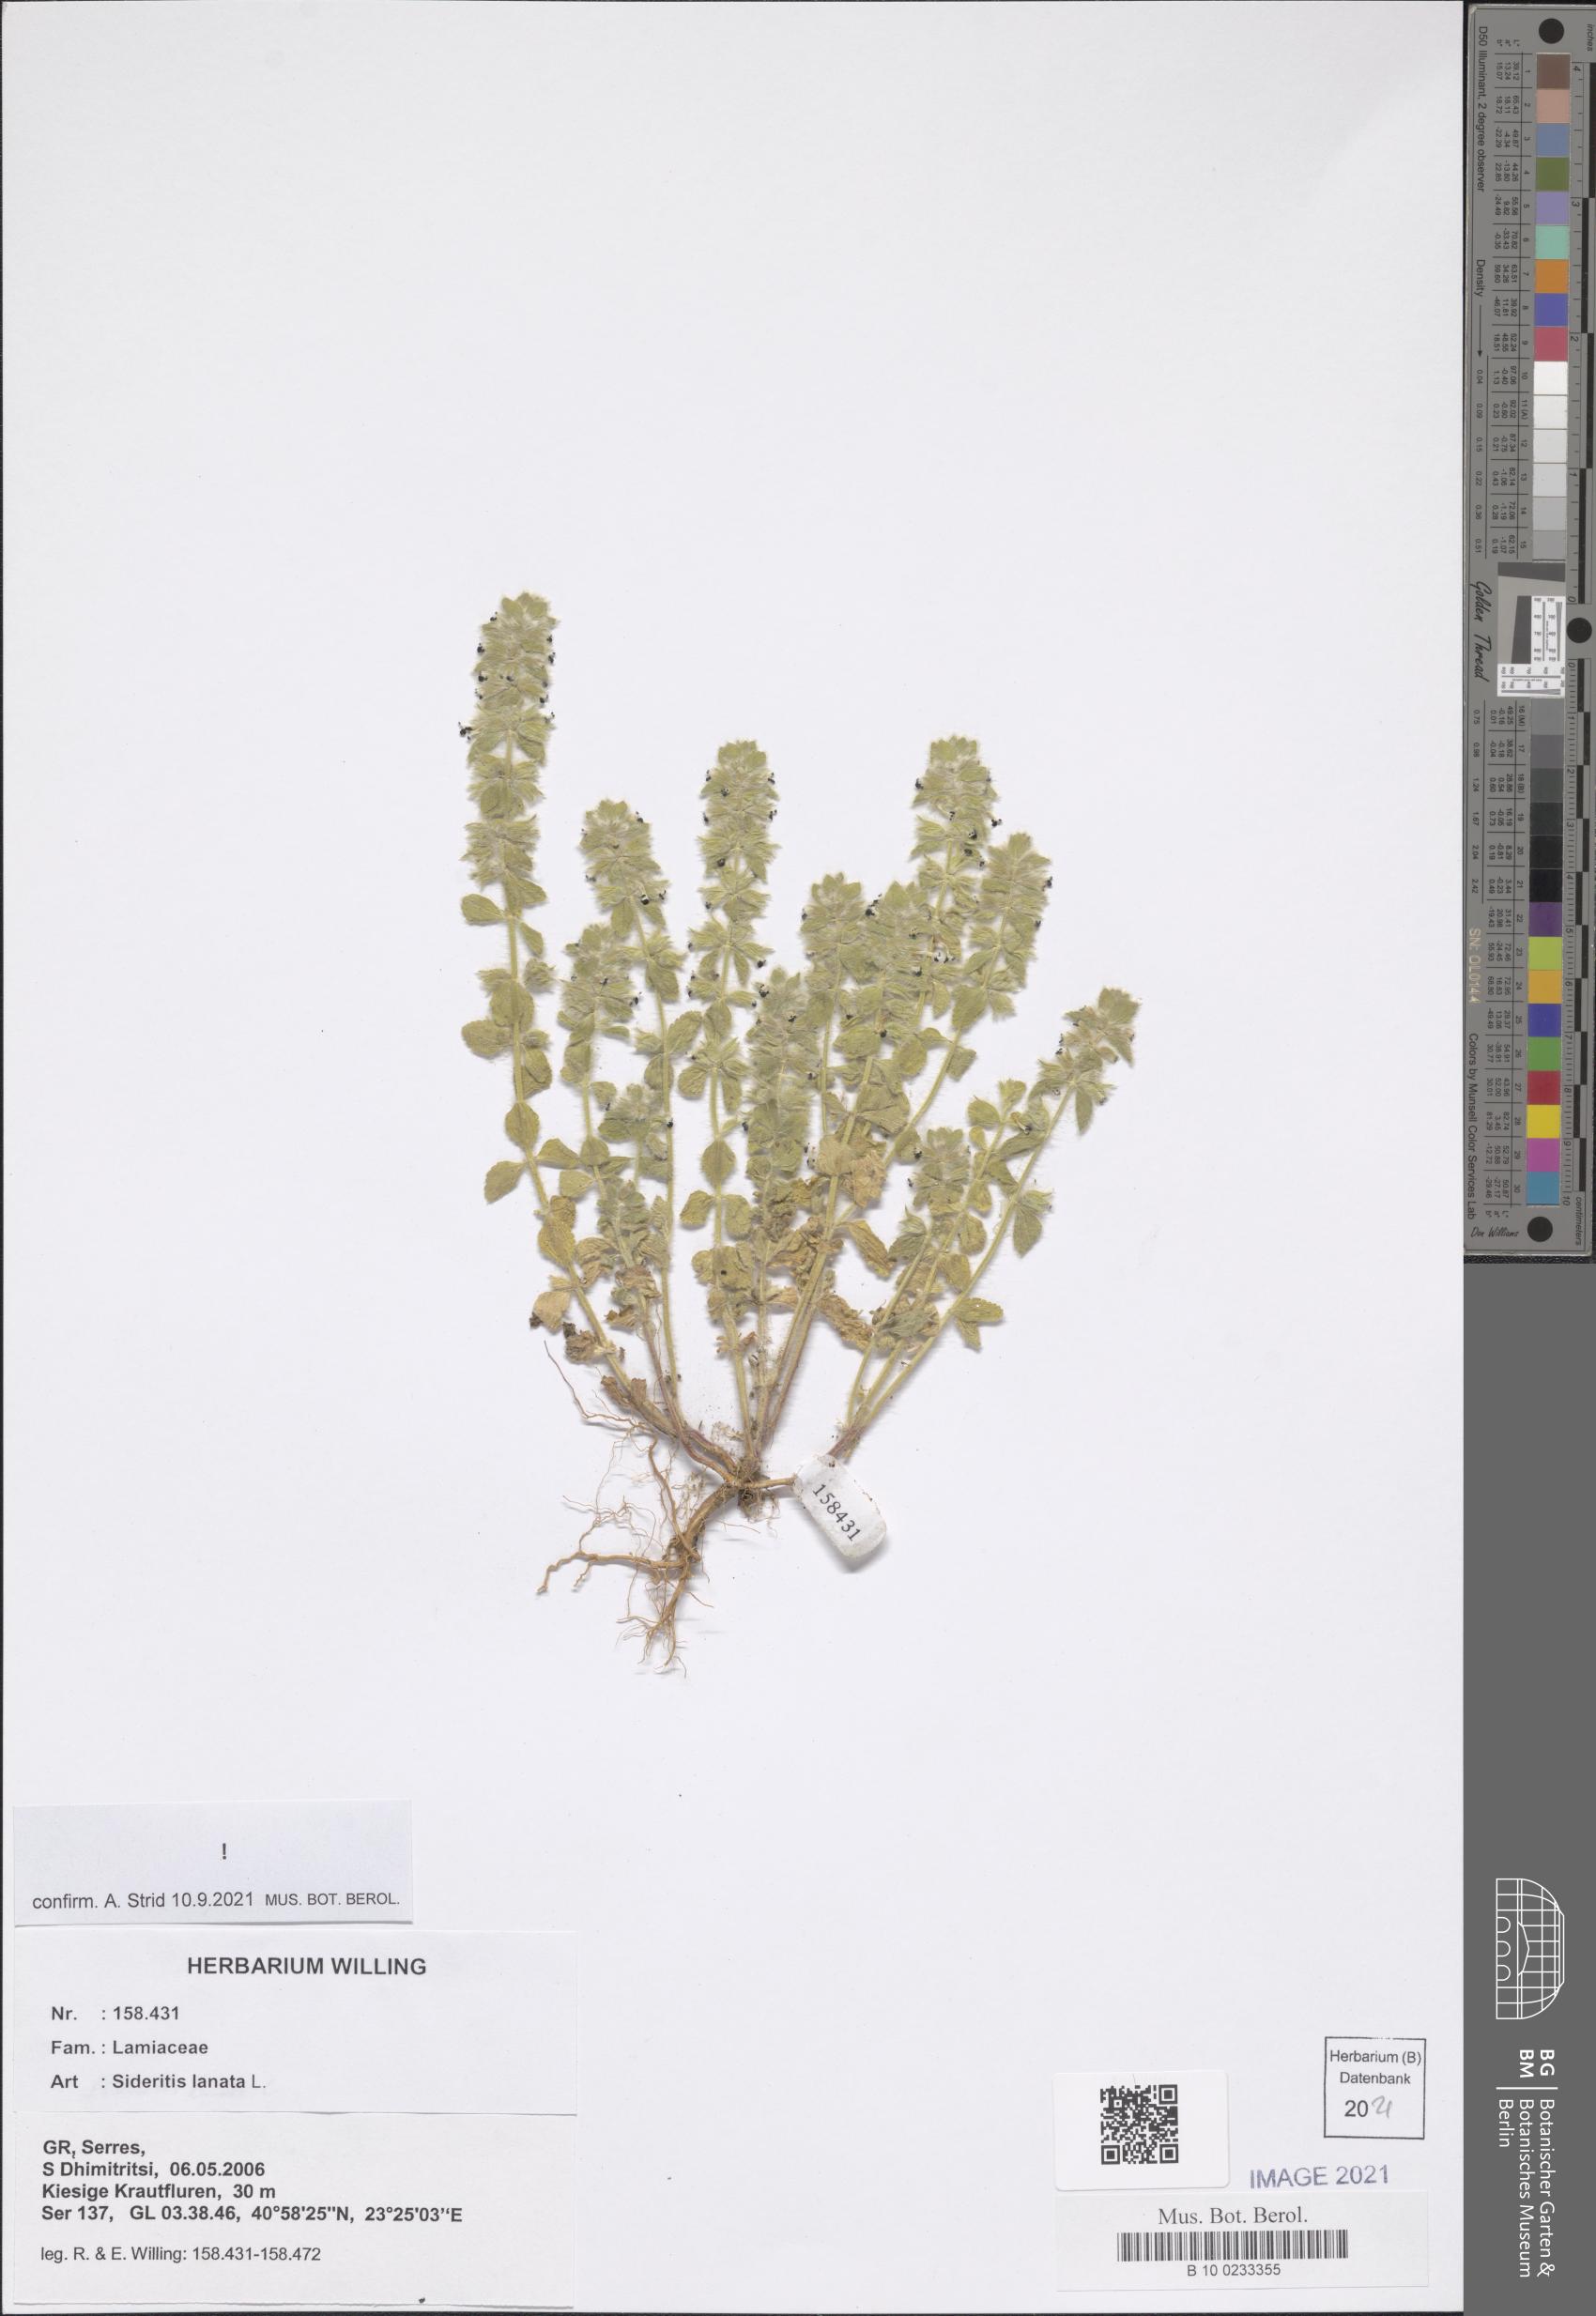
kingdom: Plantae
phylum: Tracheophyta
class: Magnoliopsida
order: Lamiales
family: Lamiaceae
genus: Sideritis
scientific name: Sideritis lanata
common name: Hairy ironwort
